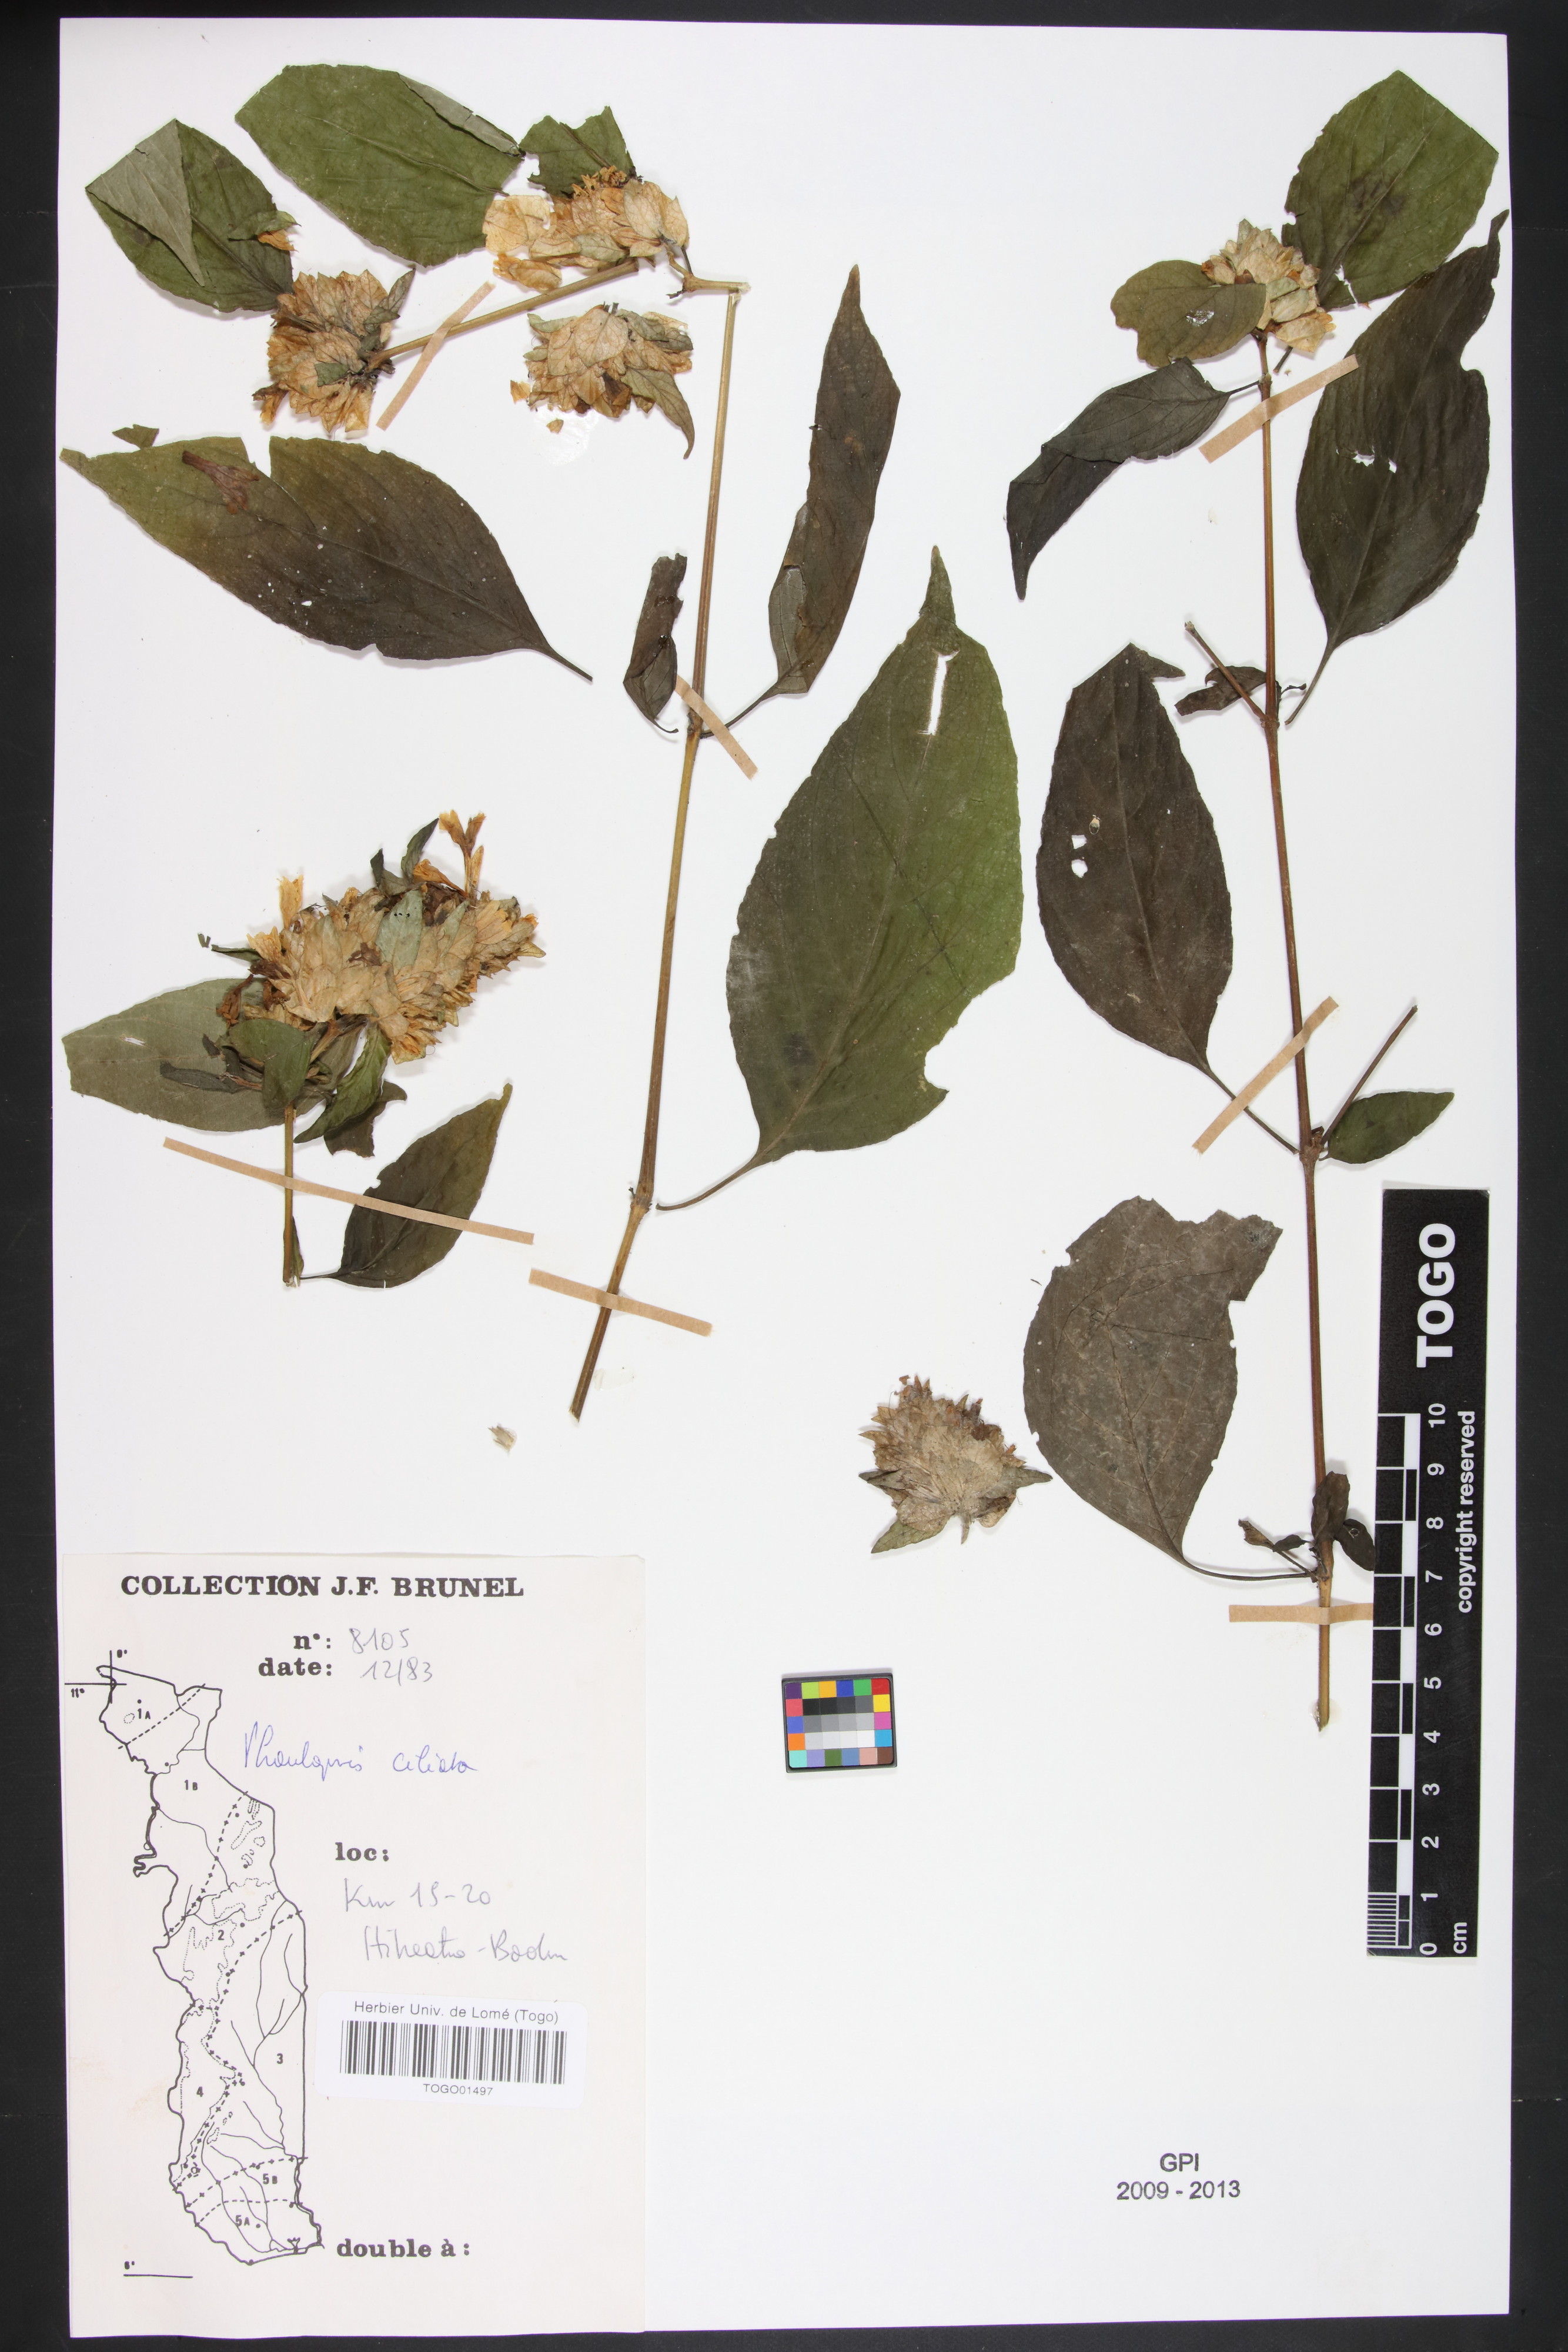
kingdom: Plantae
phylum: Tracheophyta
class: Magnoliopsida
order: Lamiales
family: Acanthaceae
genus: Phaulopsis
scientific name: Phaulopsis ciliata
